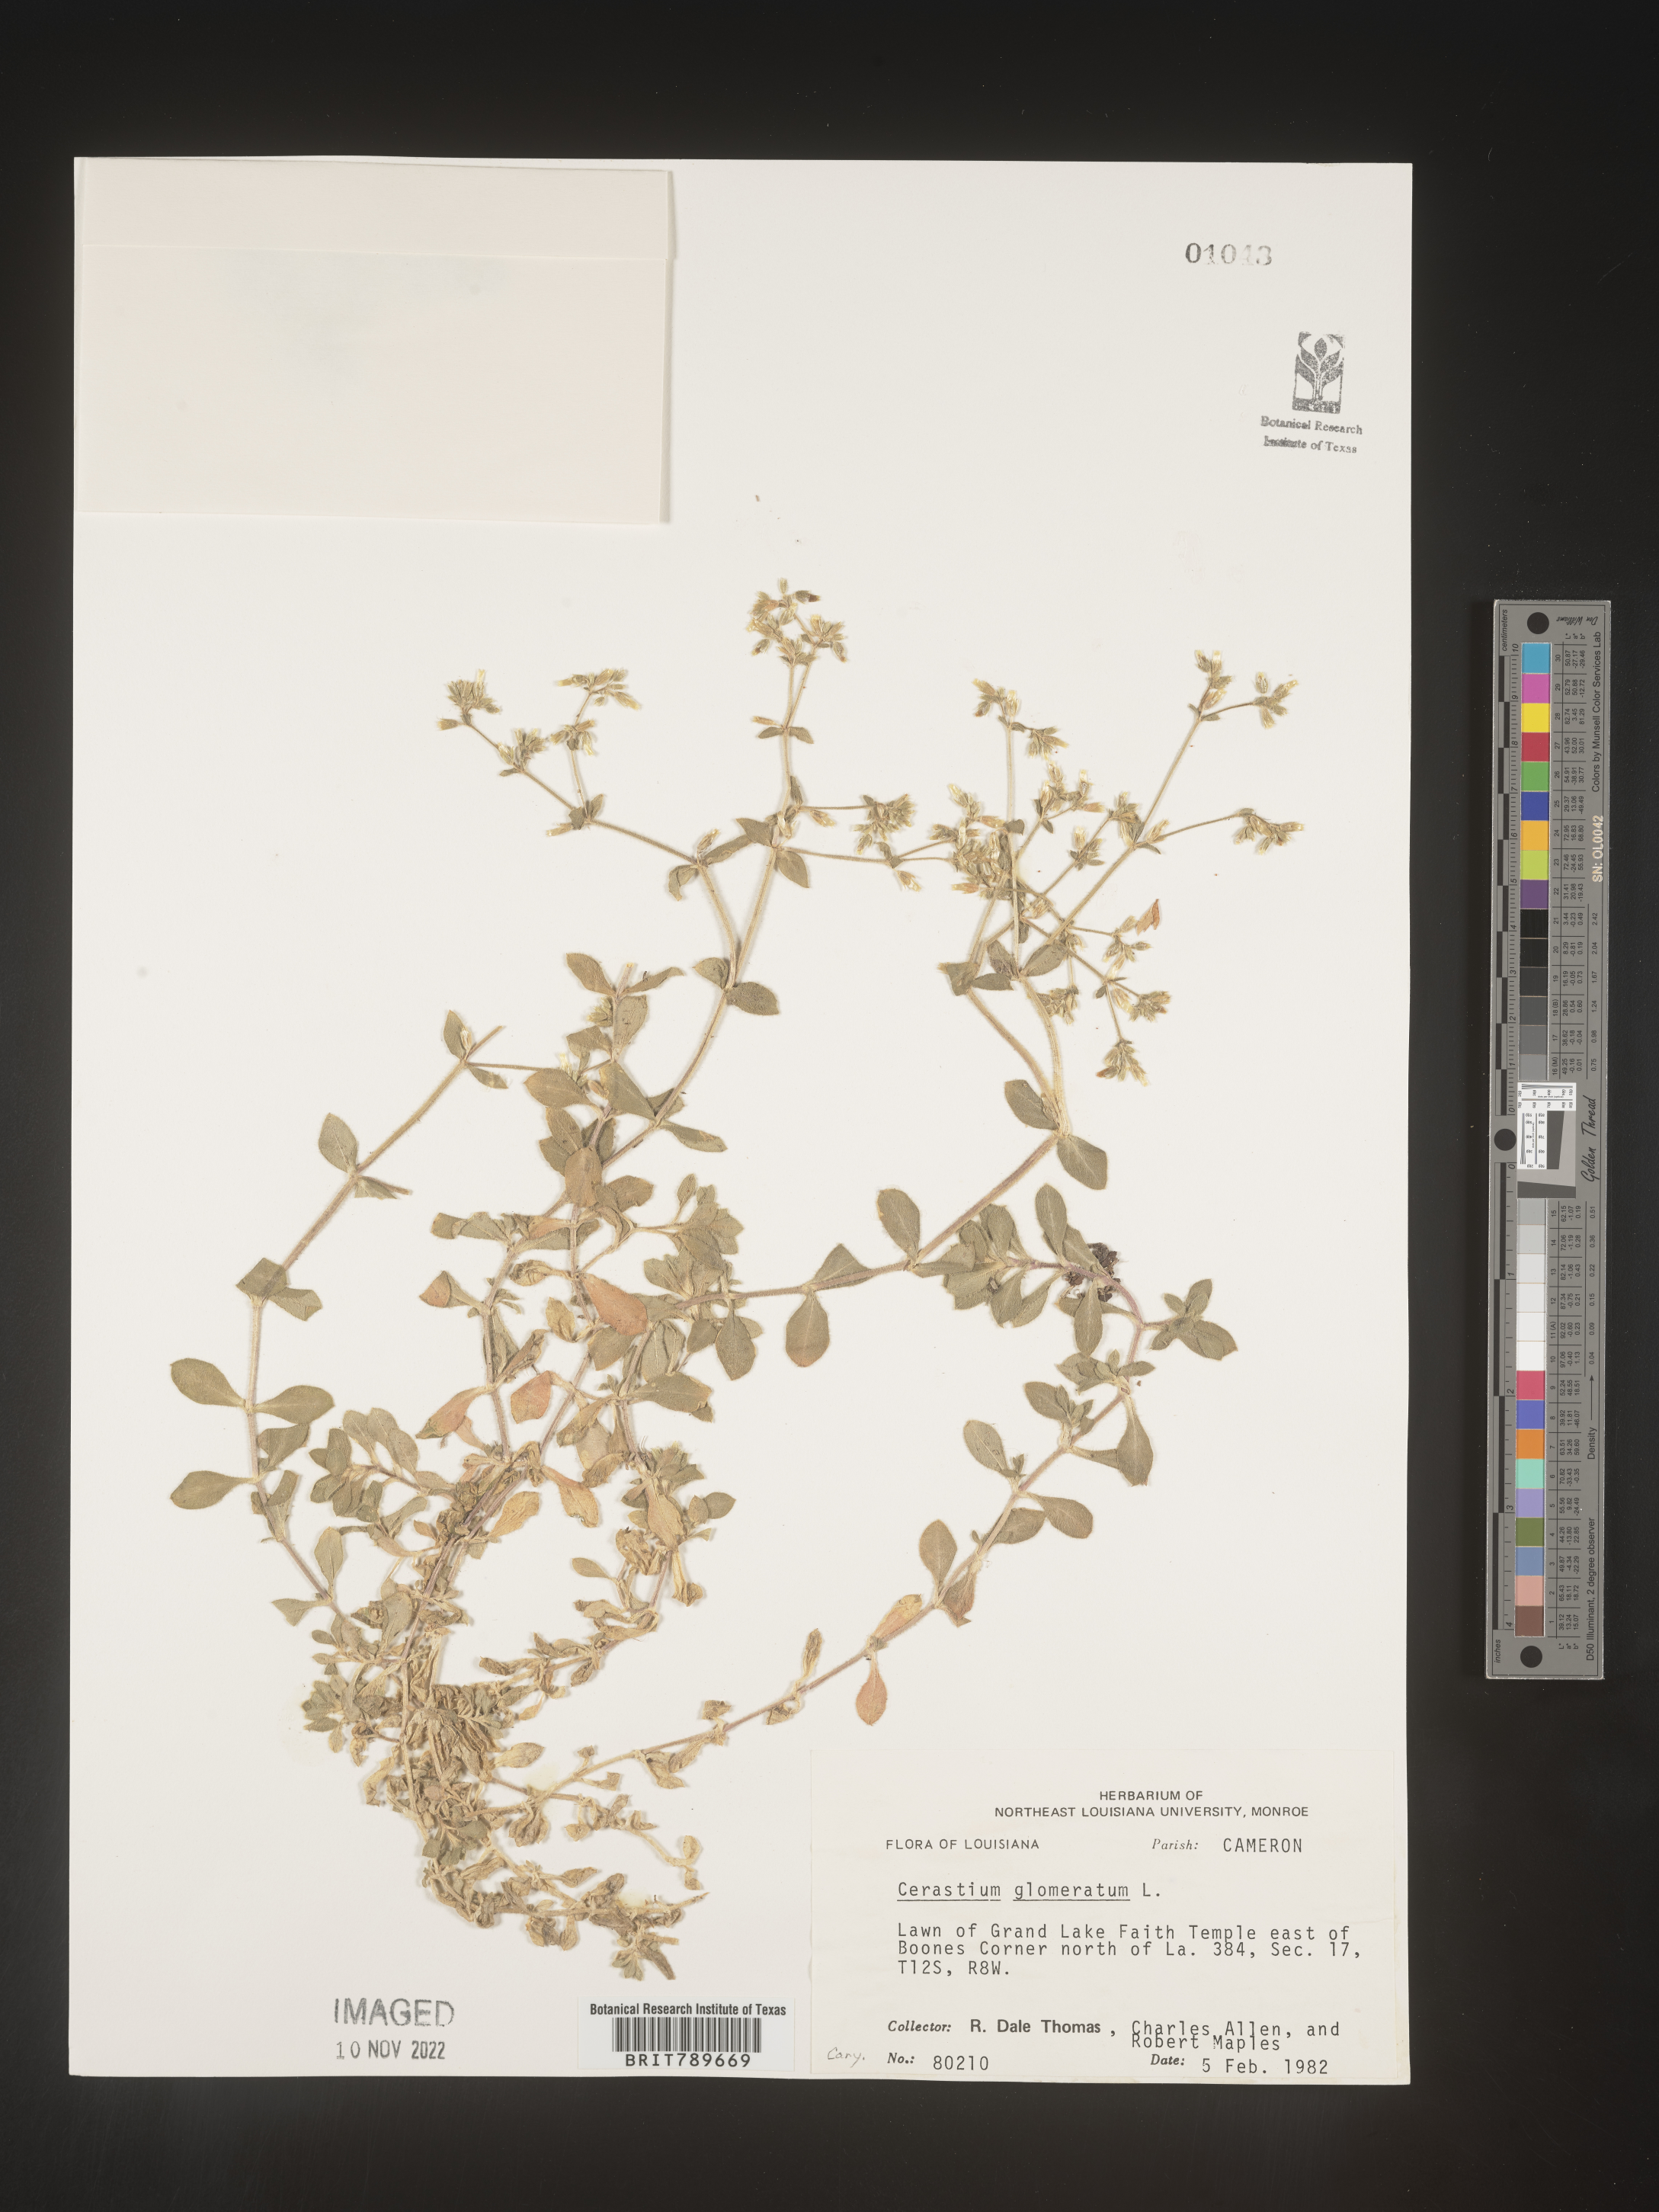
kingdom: Plantae
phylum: Tracheophyta
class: Magnoliopsida
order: Caryophyllales
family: Caryophyllaceae
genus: Cerastium
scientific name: Cerastium glomeratum
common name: Sticky chickweed
